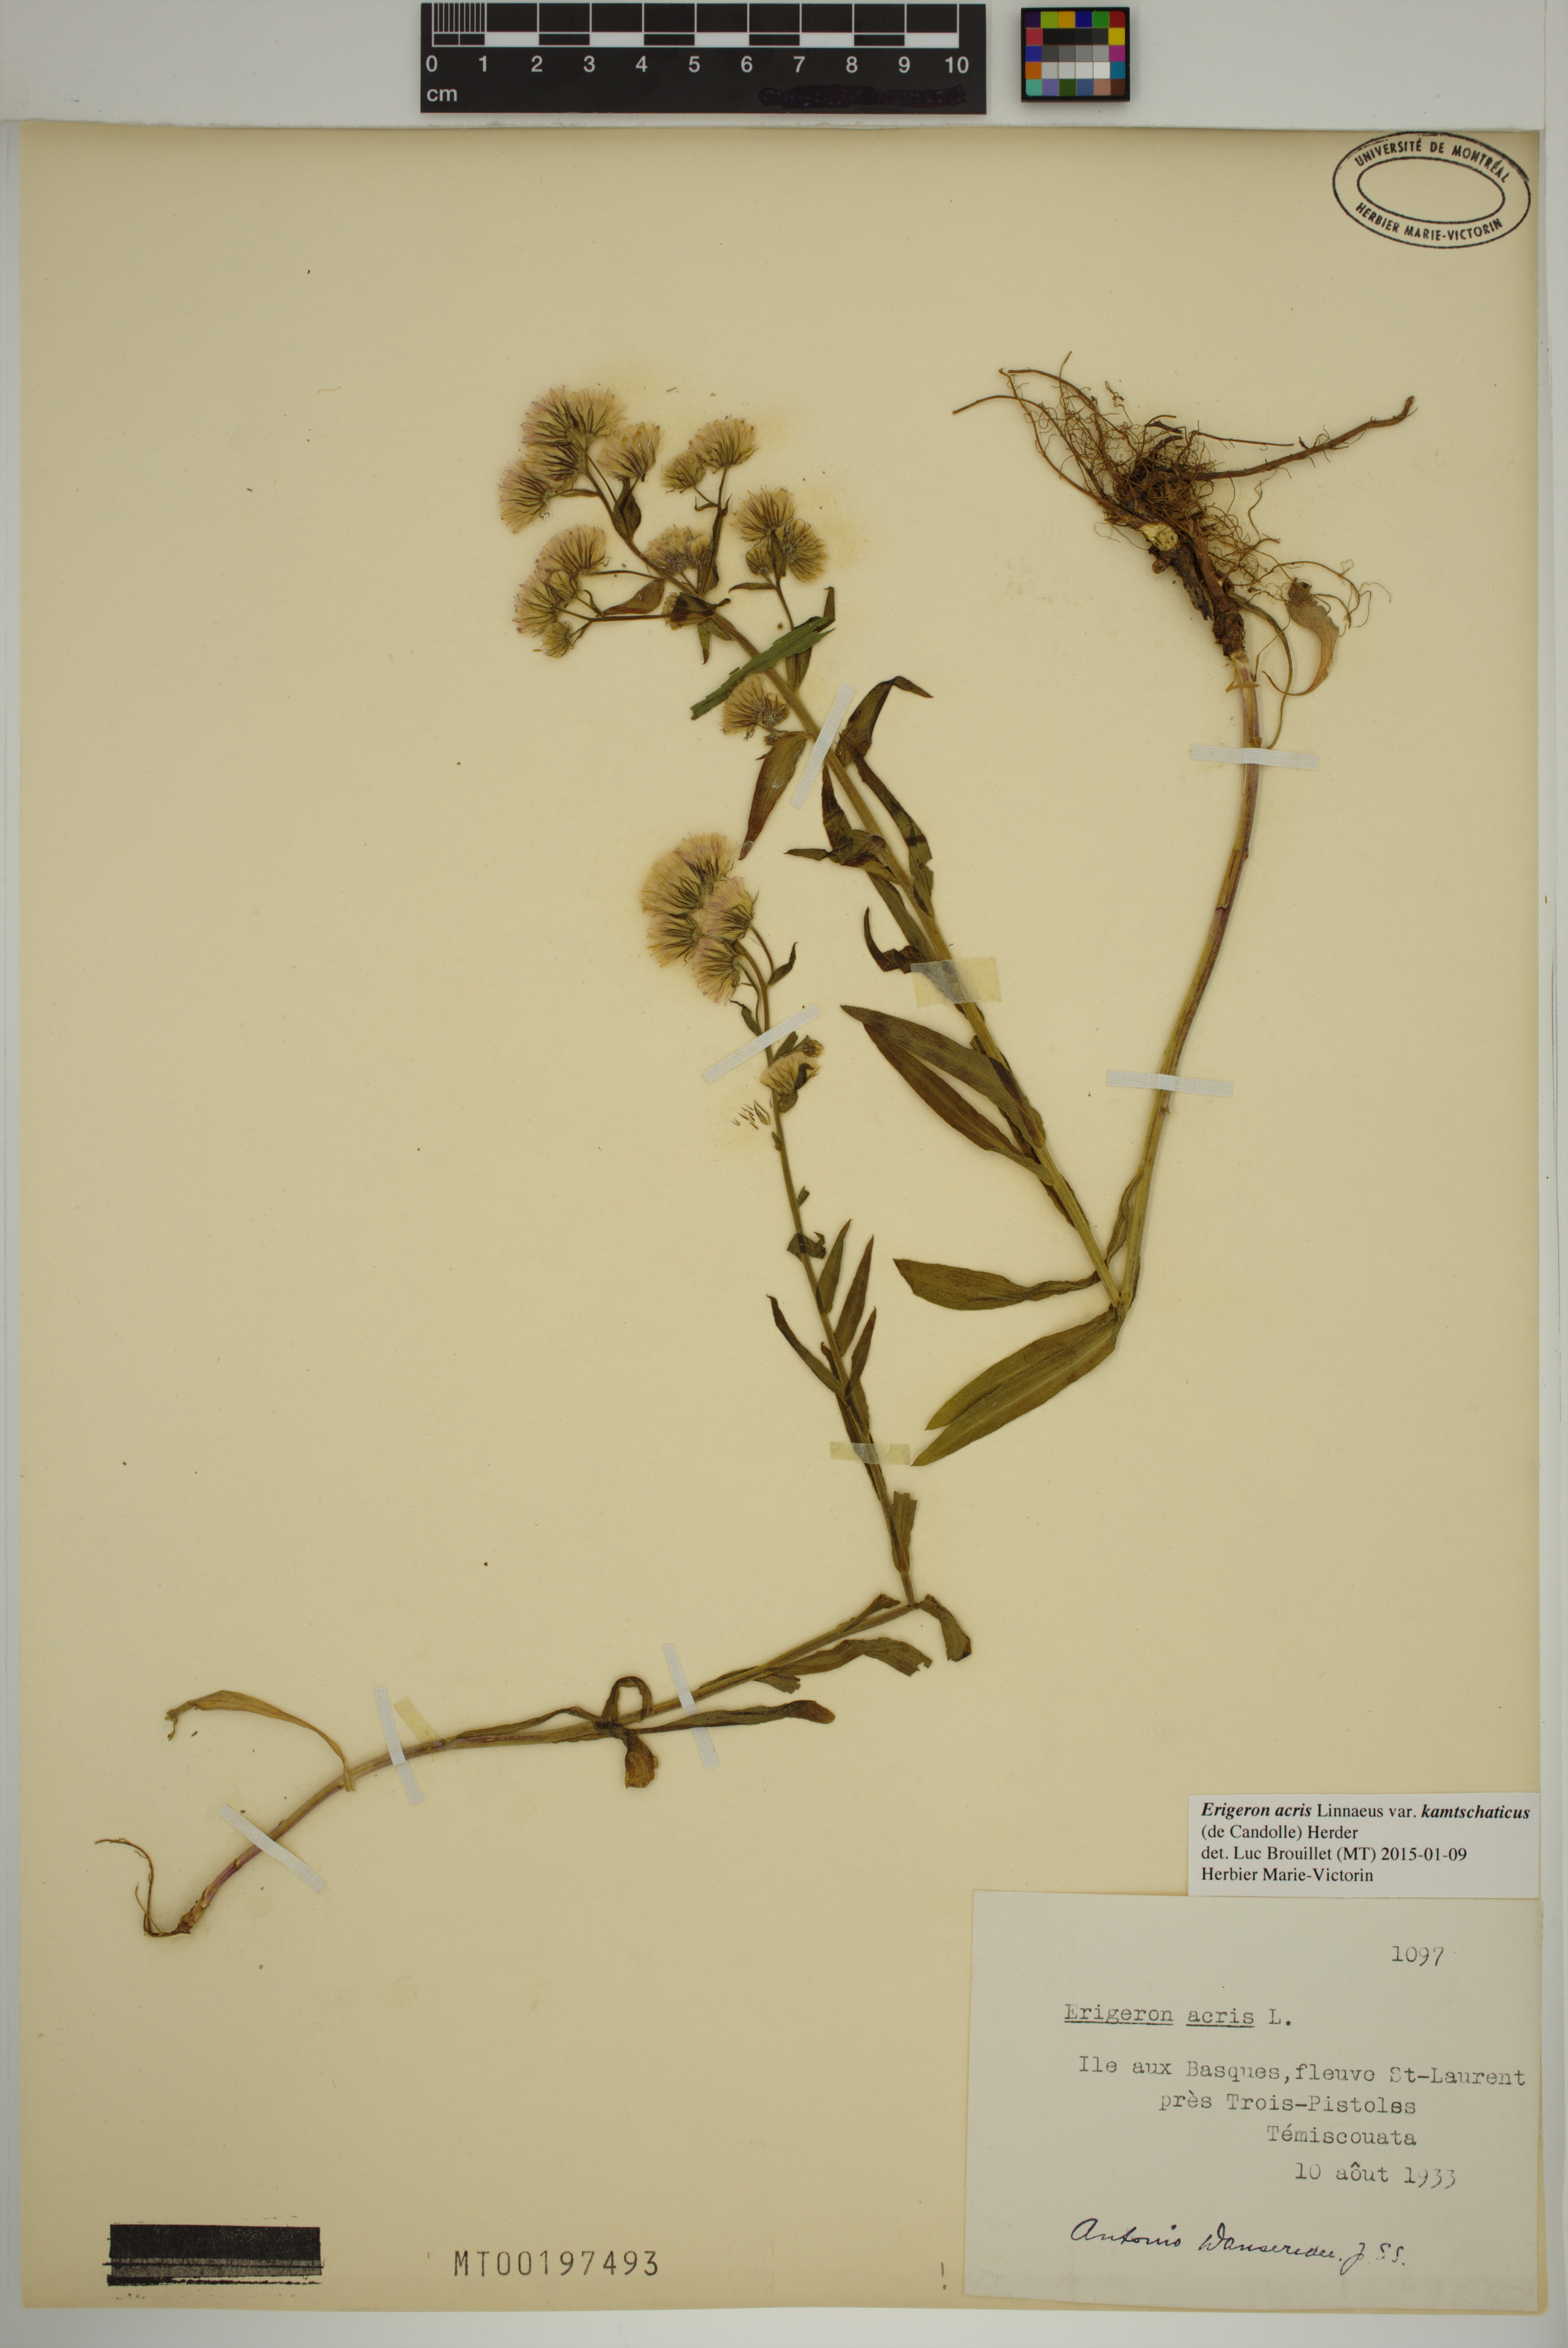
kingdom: Plantae
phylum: Tracheophyta
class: Magnoliopsida
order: Asterales
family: Asteraceae
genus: Erigeron
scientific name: Erigeron kamtschaticus
